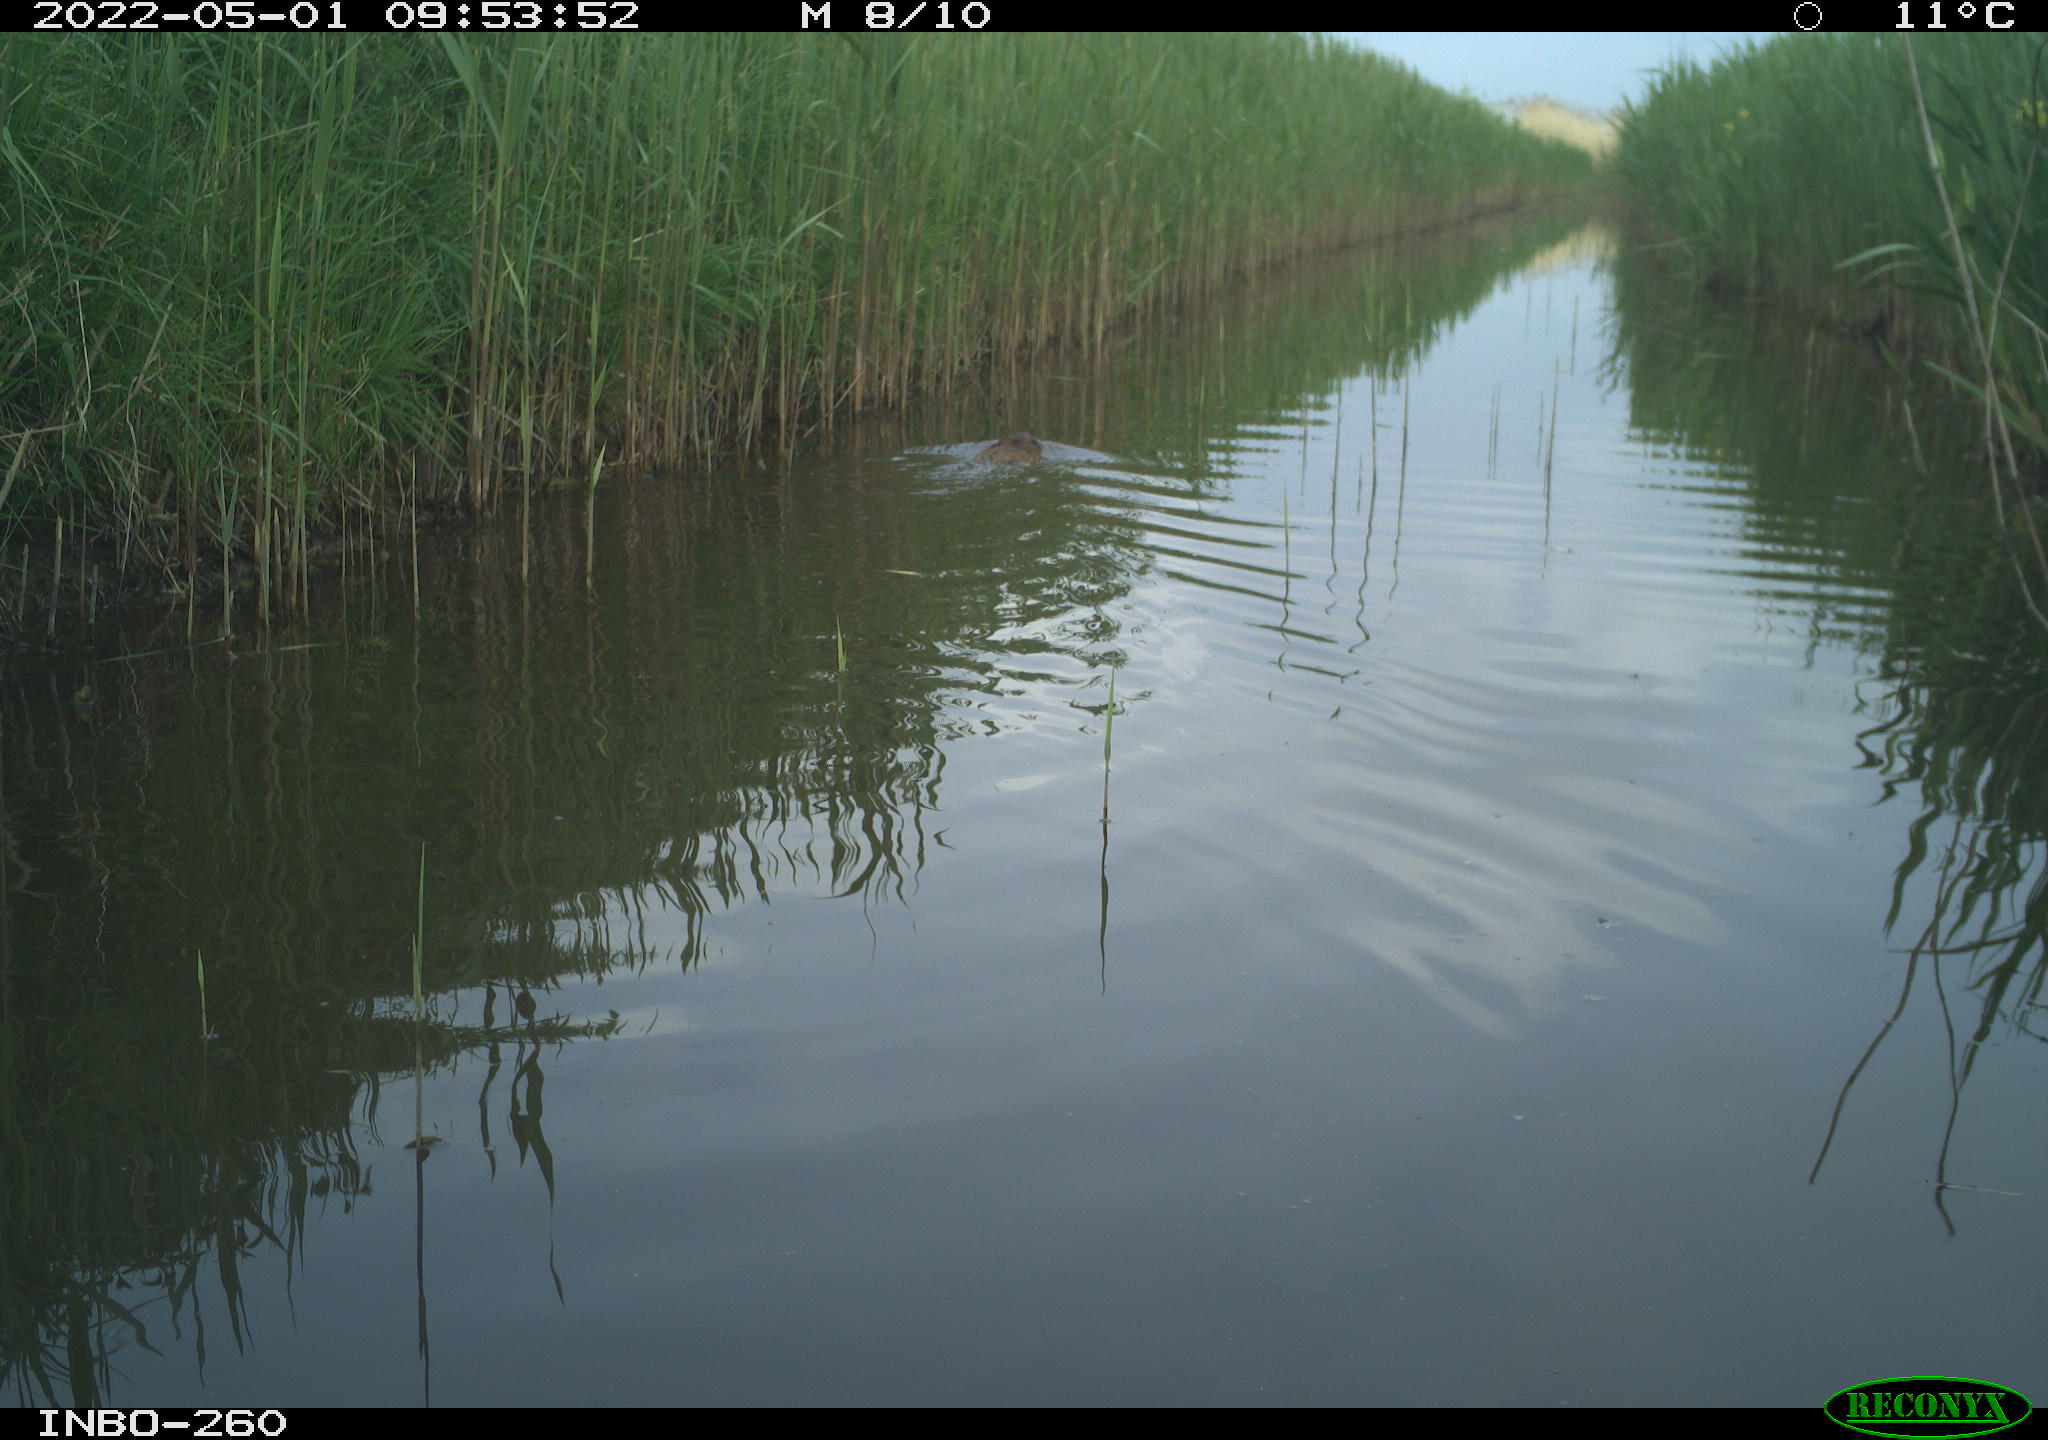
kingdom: Animalia
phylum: Chordata
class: Mammalia
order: Rodentia
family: Castoridae
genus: Castor
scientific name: Castor fiber
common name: Eurasian beaver
